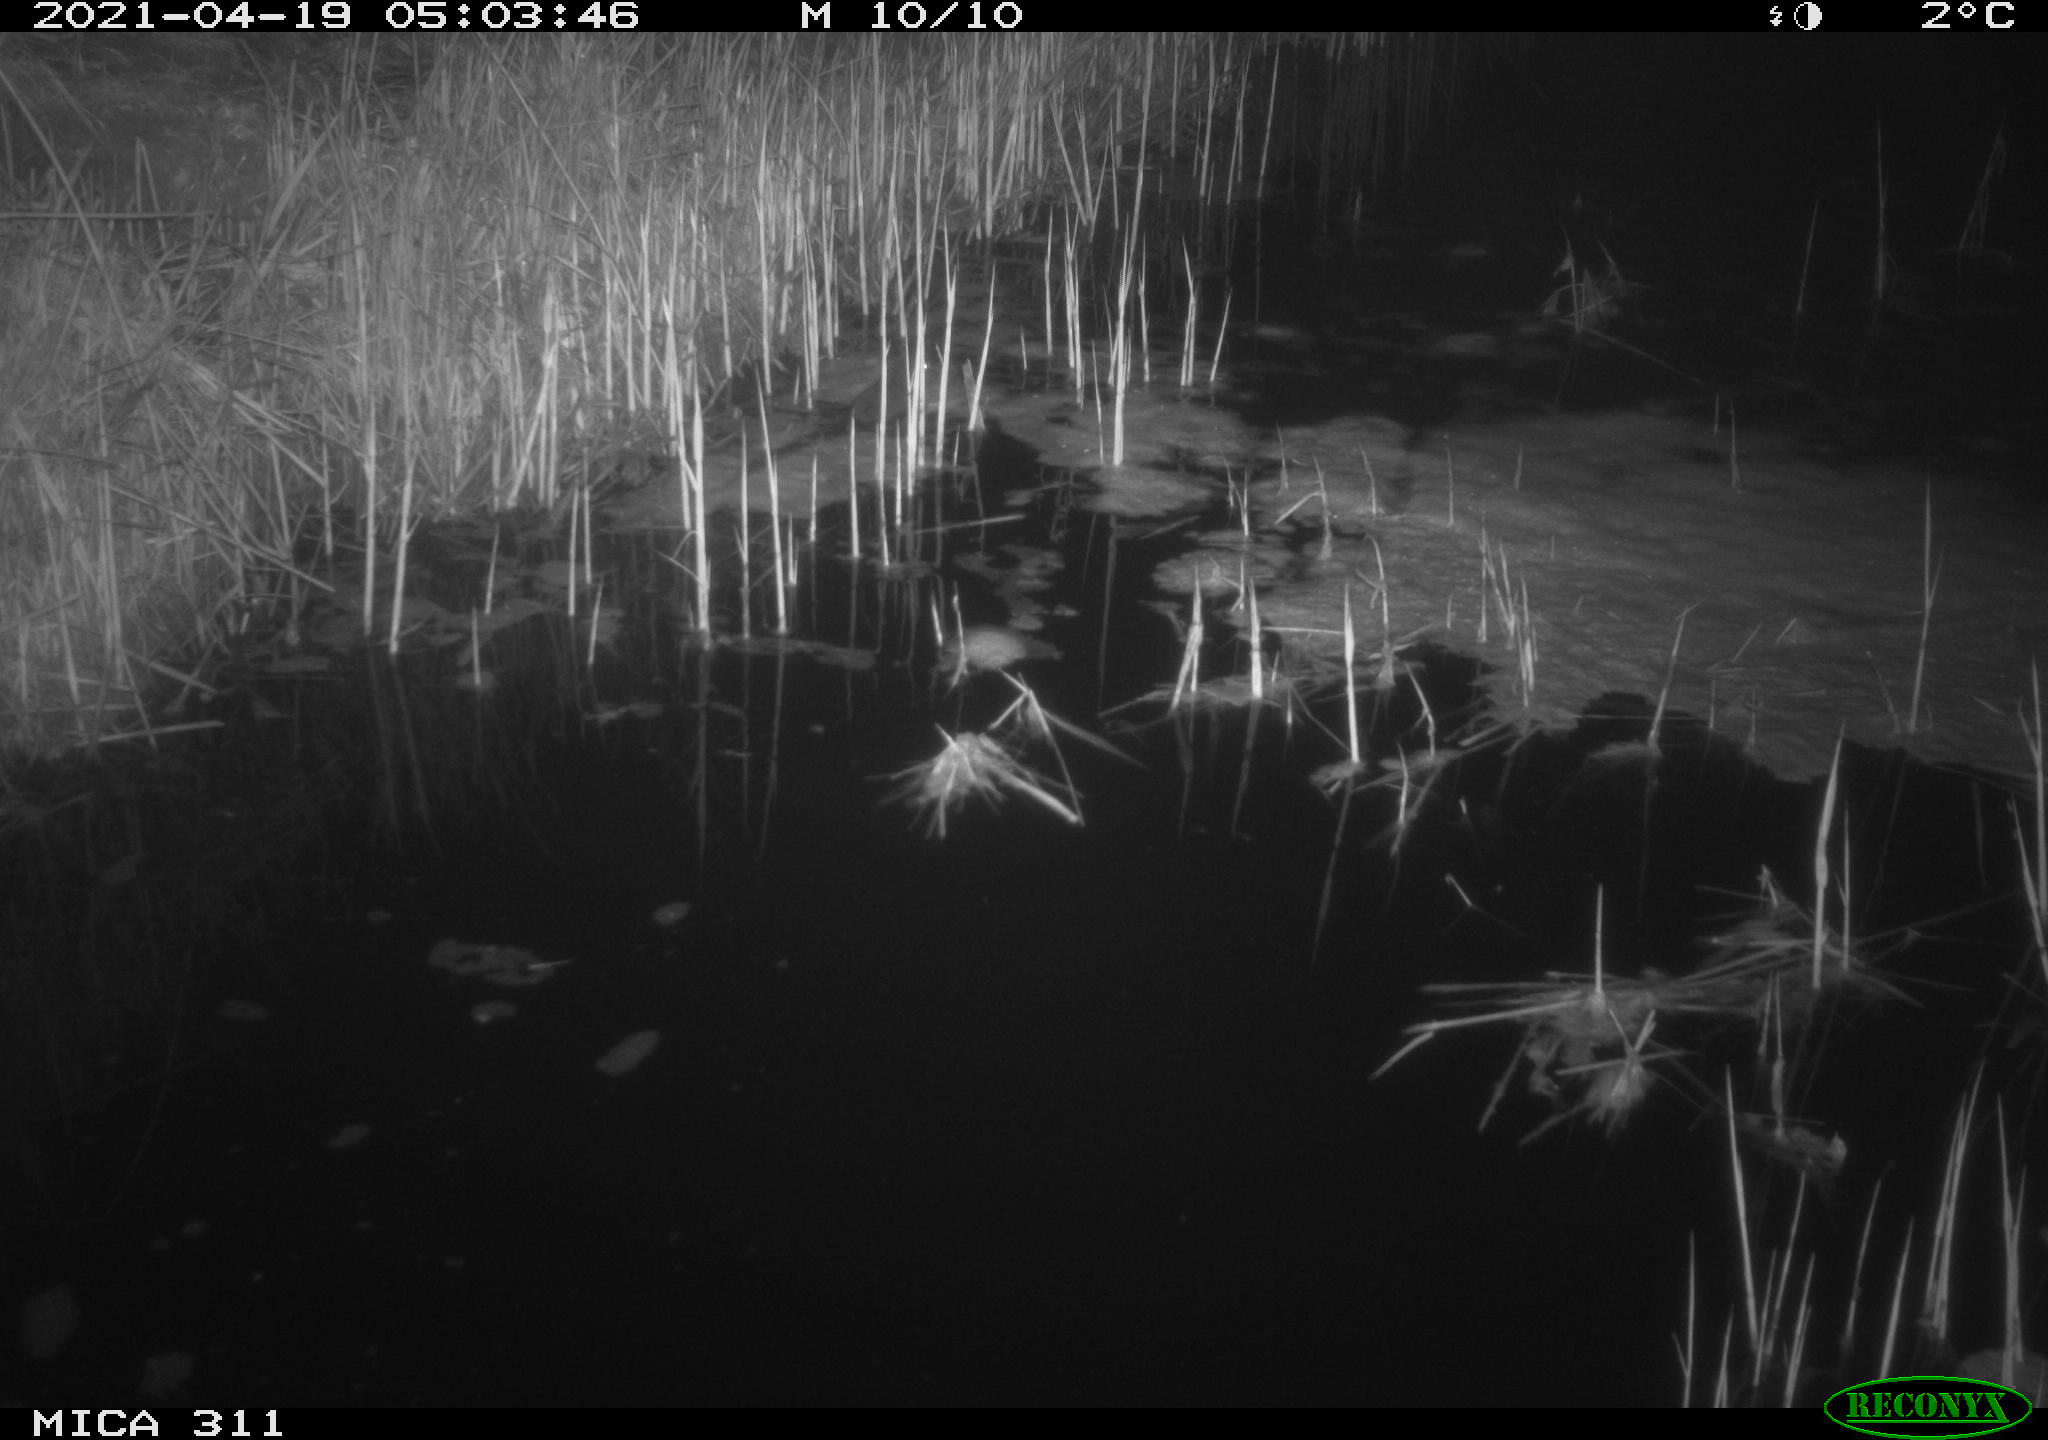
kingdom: Animalia
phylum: Chordata
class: Mammalia
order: Rodentia
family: Muridae
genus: Rattus
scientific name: Rattus norvegicus
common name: Brown rat
